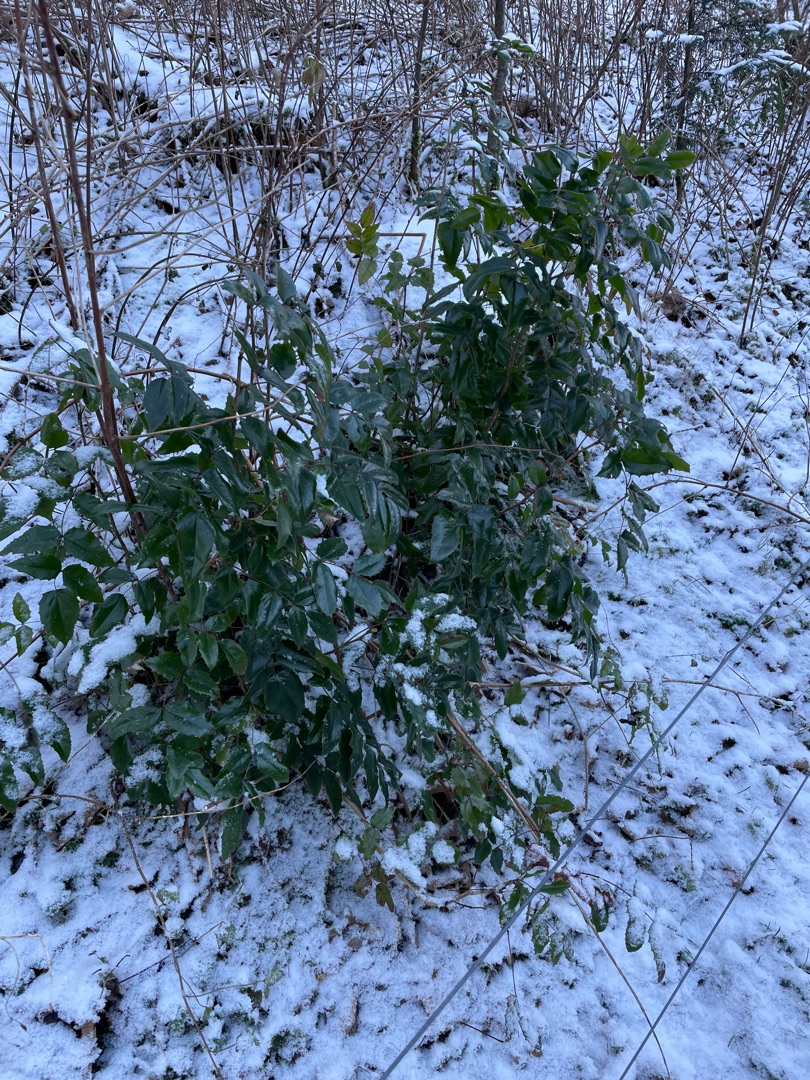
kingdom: Plantae
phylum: Tracheophyta
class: Magnoliopsida
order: Ranunculales
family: Berberidaceae
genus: Mahonia
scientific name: Mahonia aquifolium
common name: Almindelig mahonie
